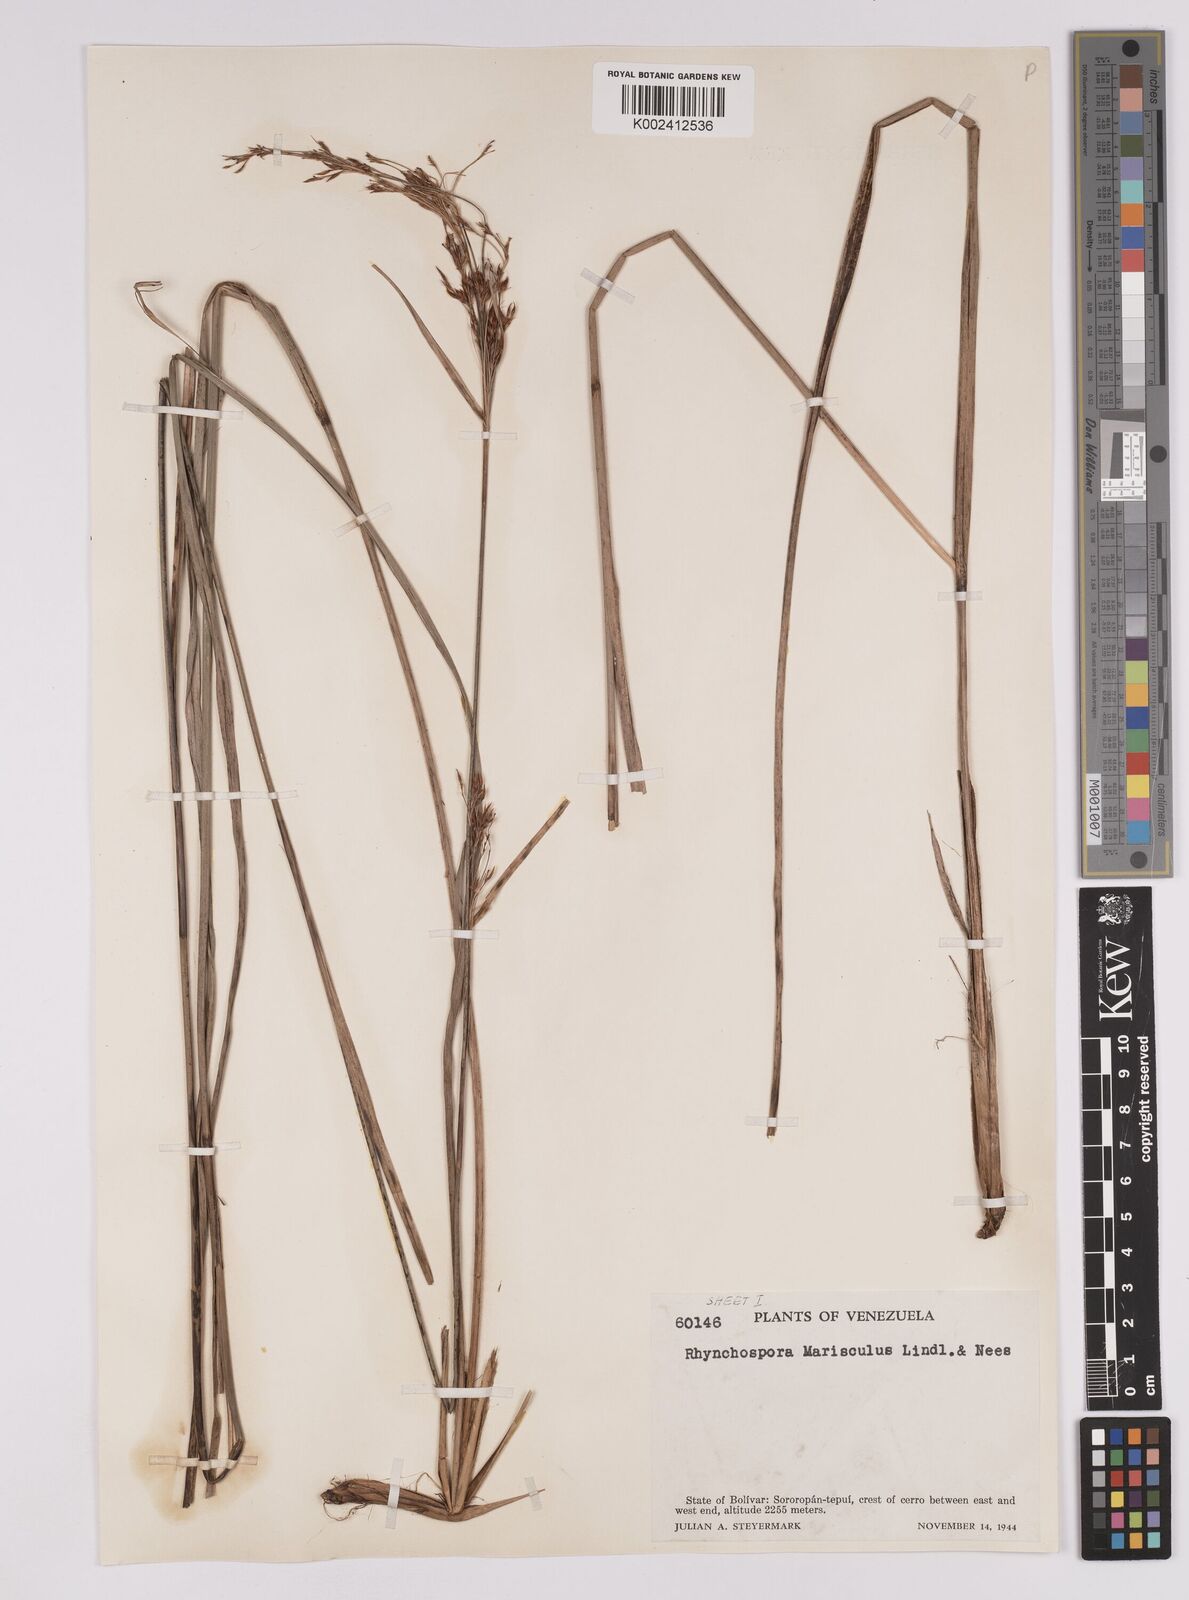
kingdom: Plantae
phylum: Tracheophyta
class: Liliopsida
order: Poales
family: Cyperaceae
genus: Rhynchospora
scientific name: Rhynchospora marisculus
